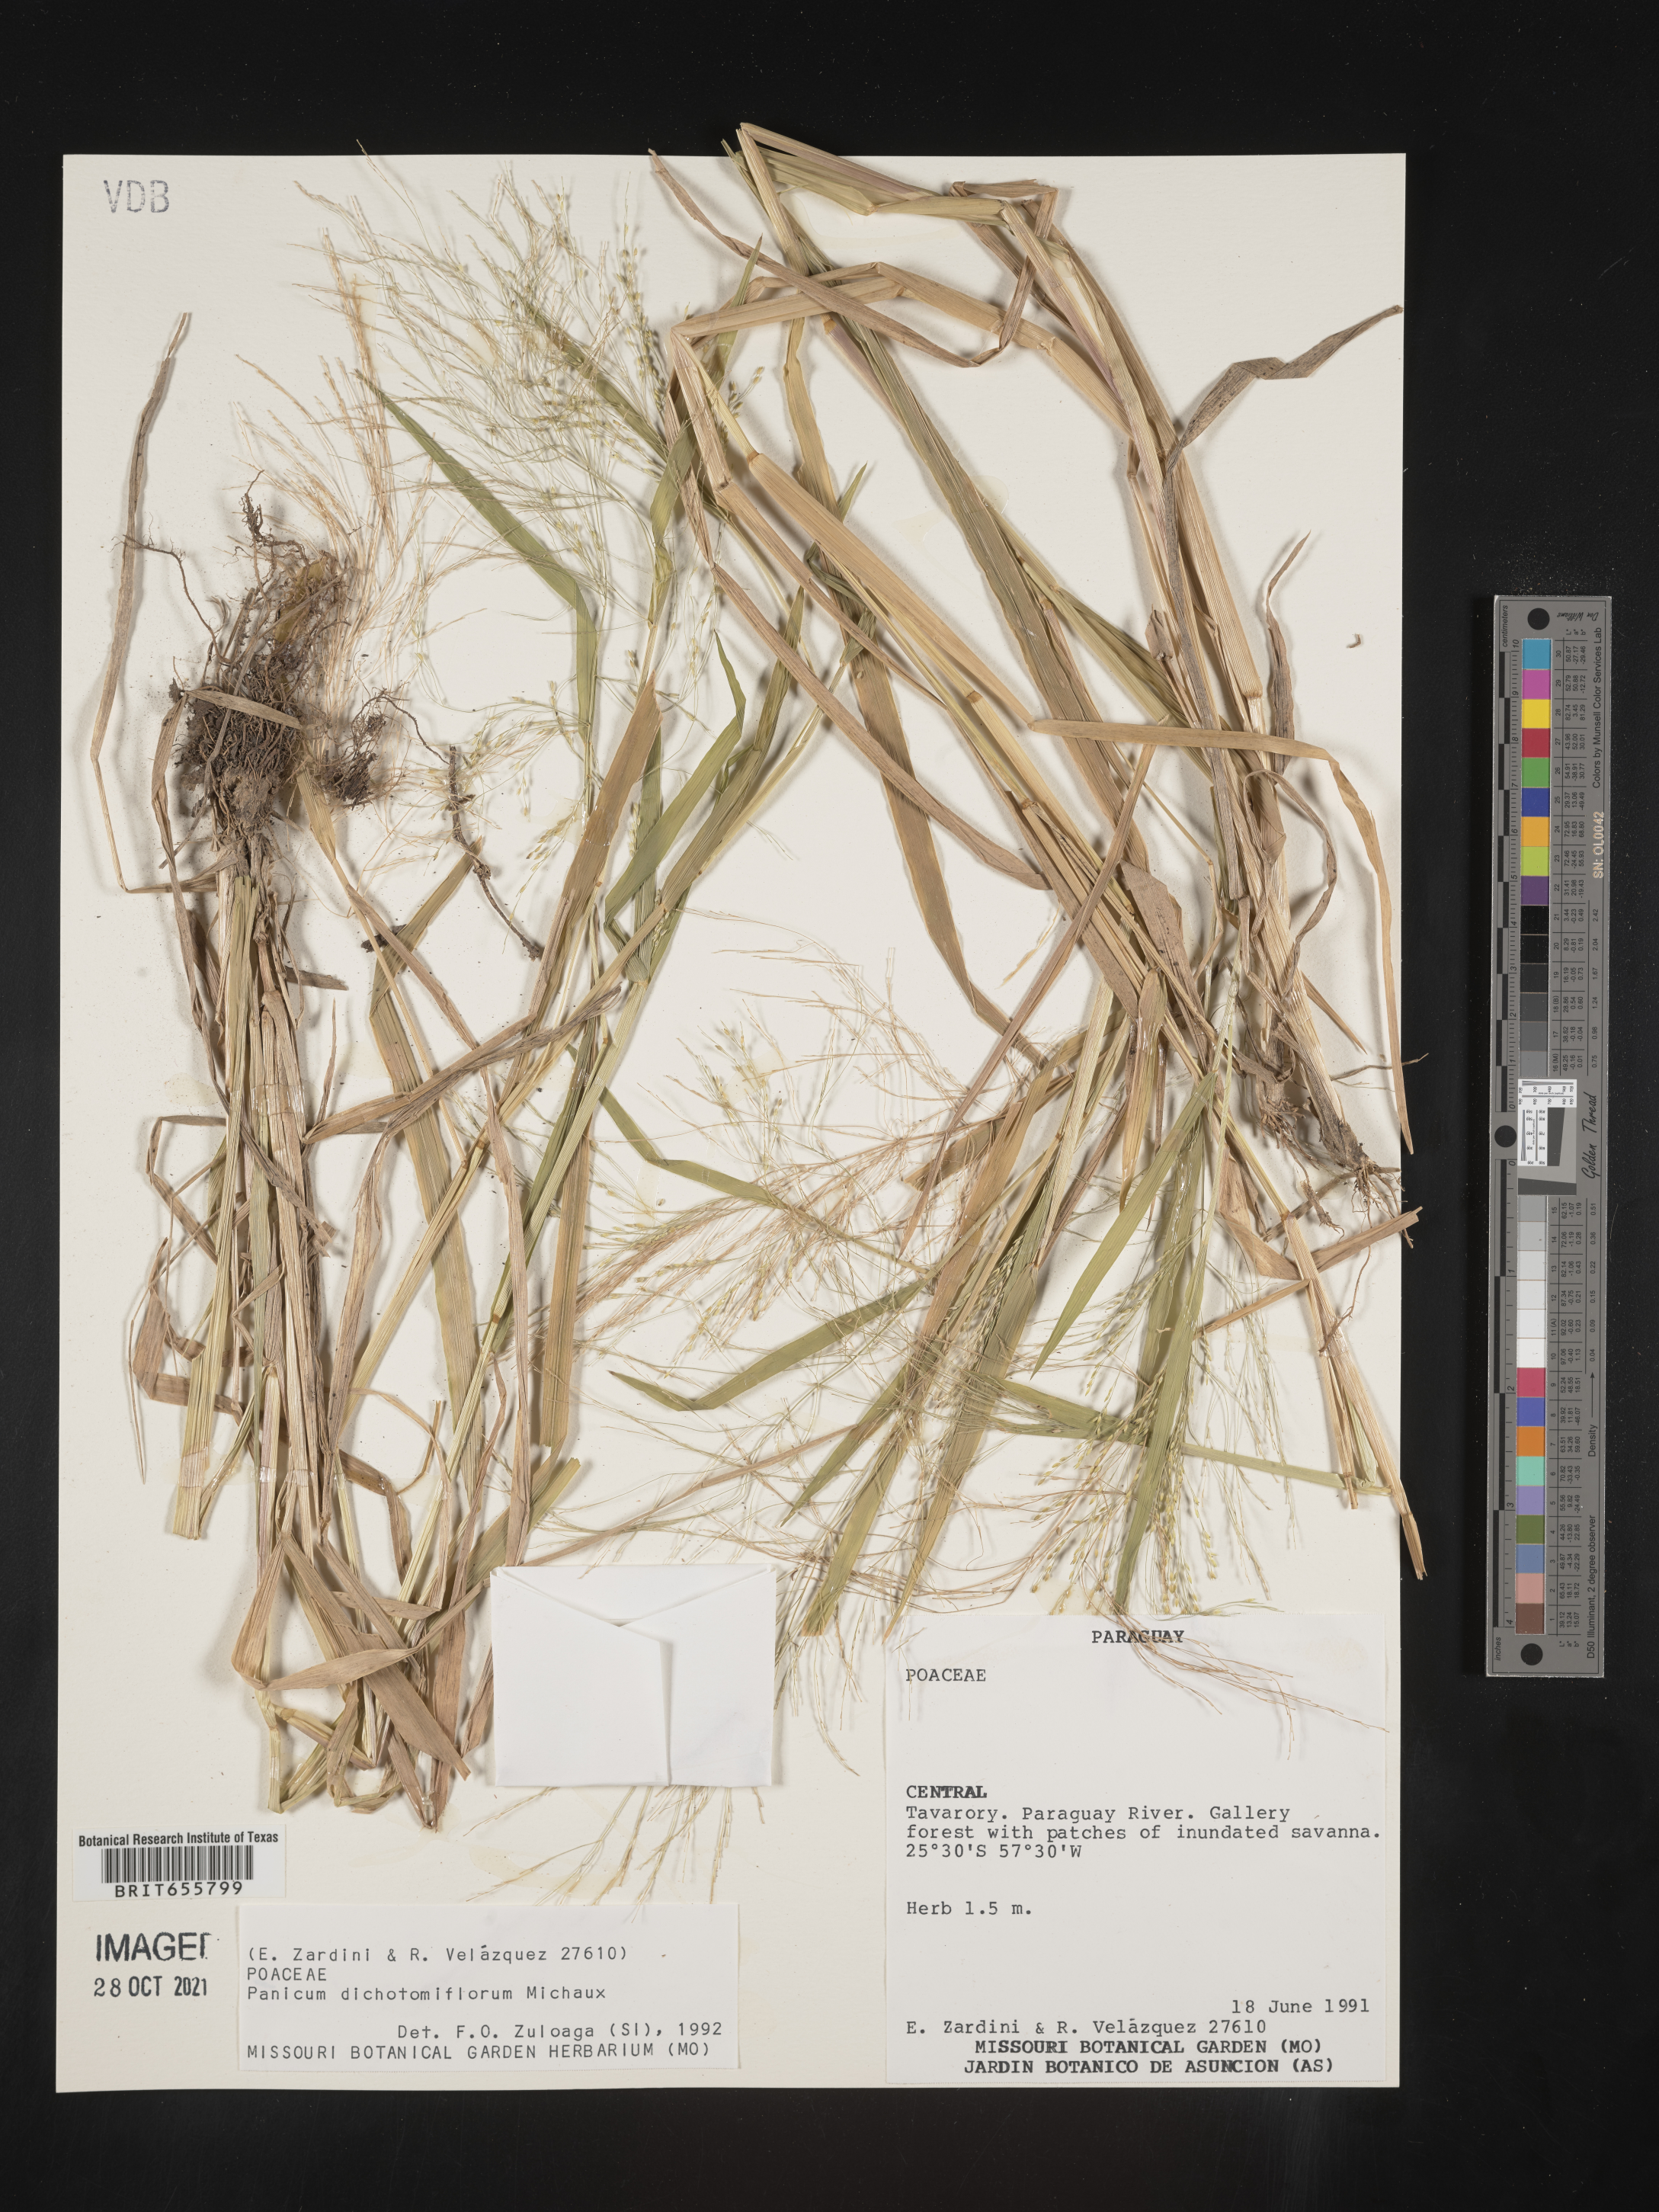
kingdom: Plantae
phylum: Tracheophyta
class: Liliopsida
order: Poales
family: Poaceae
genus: Panicum
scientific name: Panicum
